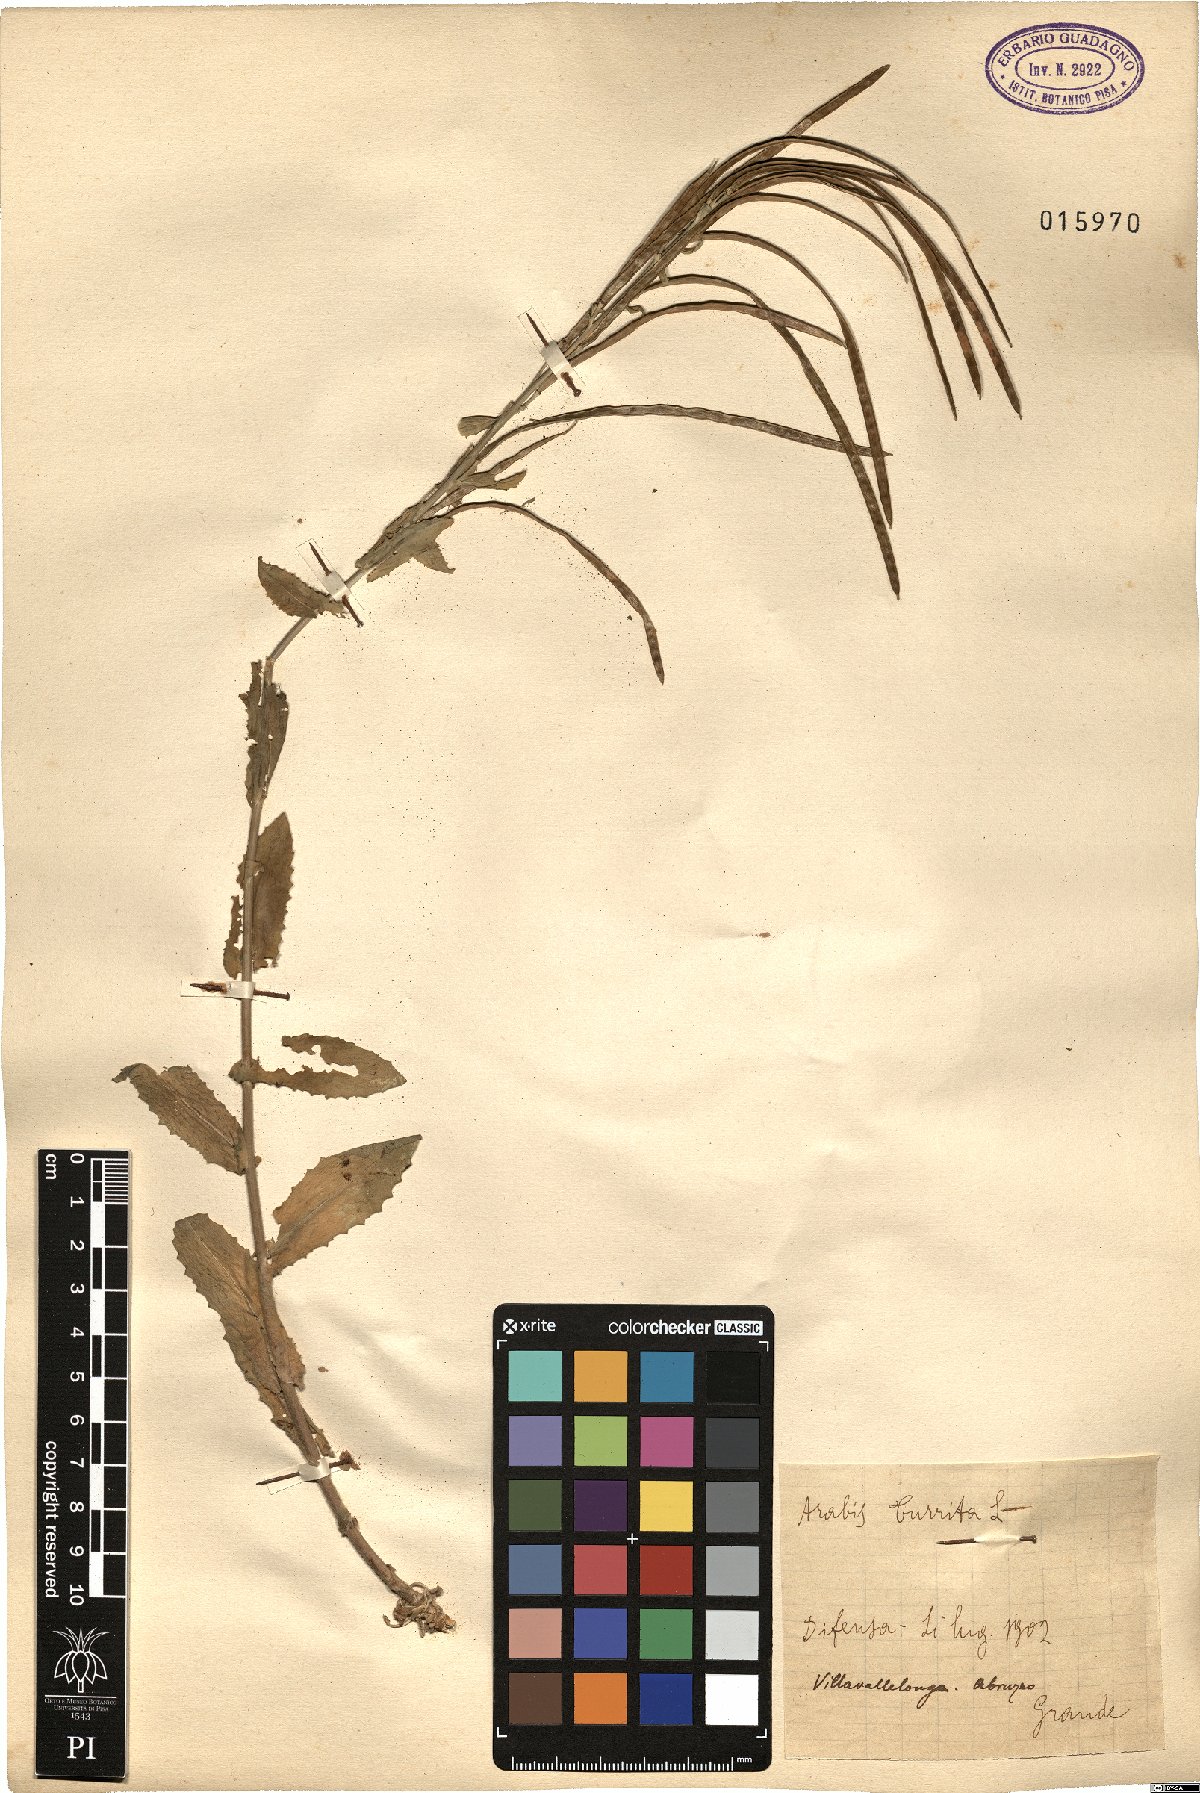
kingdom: Plantae
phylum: Tracheophyta
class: Magnoliopsida
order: Brassicales
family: Brassicaceae
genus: Pseudoturritis
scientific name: Pseudoturritis turrita
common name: Tower cress
